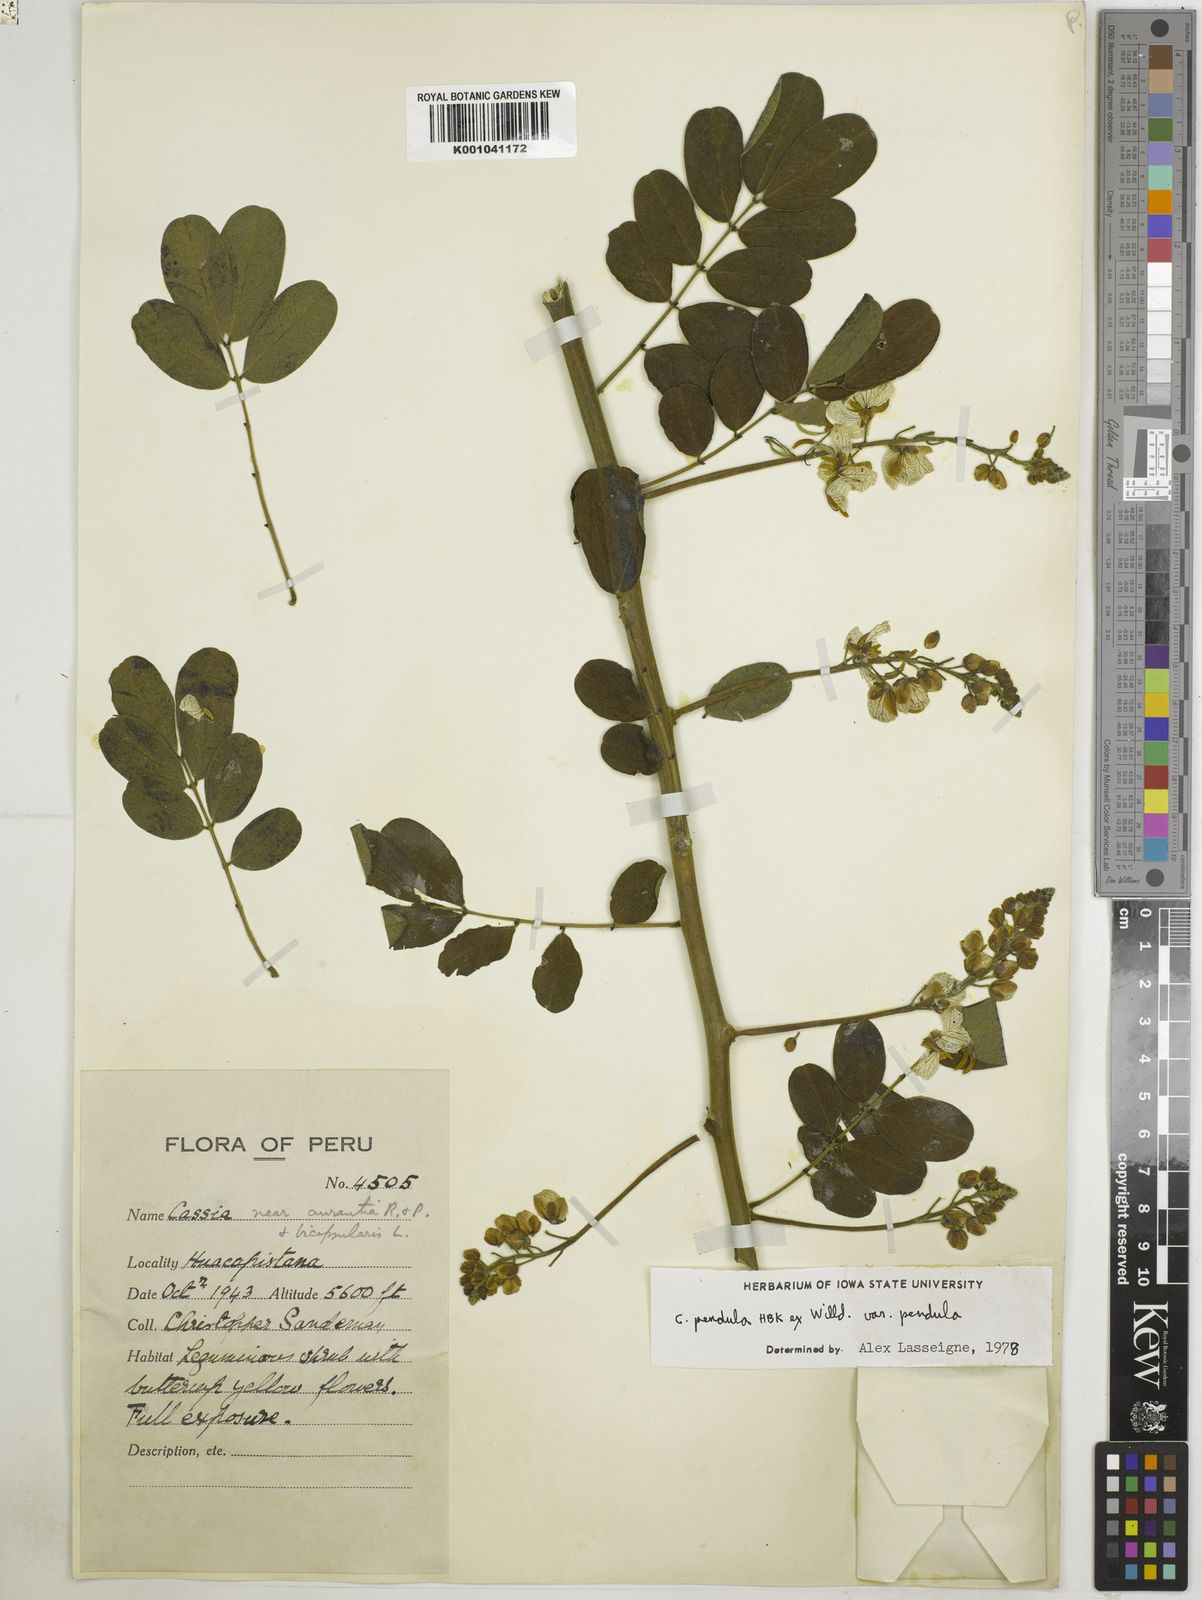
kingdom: Plantae
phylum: Tracheophyta
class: Magnoliopsida
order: Fabales
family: Fabaceae
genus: Senna
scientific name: Senna pendula
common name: Easter cassia
